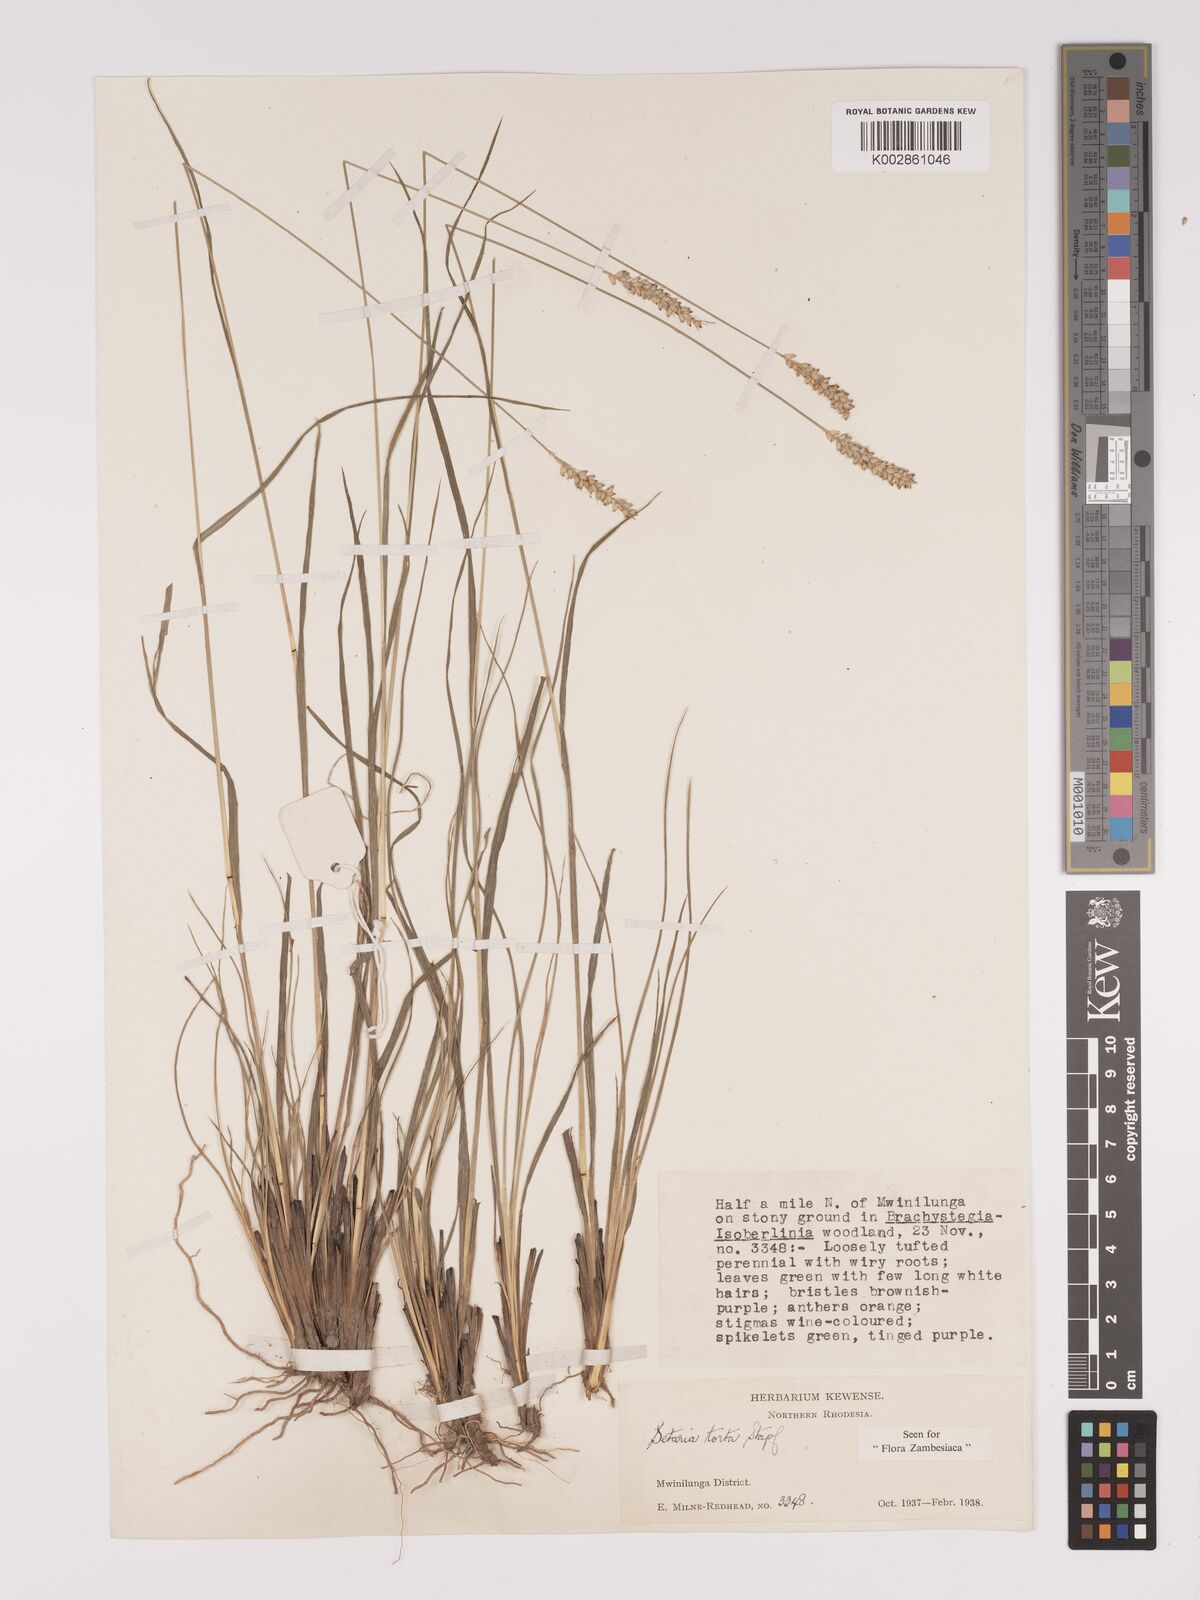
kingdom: Plantae
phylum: Tracheophyta
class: Liliopsida
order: Poales
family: Poaceae
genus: Setaria
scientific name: Setaria sphacelata
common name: African bristlegrass
